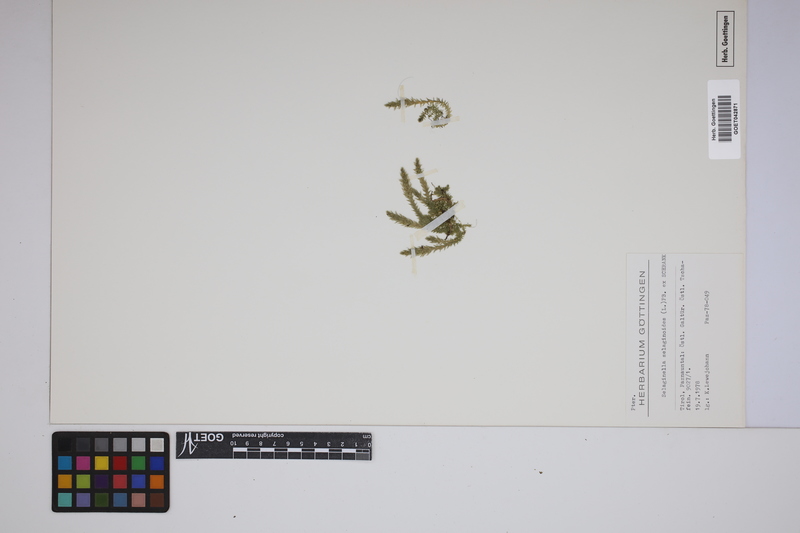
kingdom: Plantae
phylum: Tracheophyta
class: Lycopodiopsida
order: Selaginellales
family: Selaginellaceae
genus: Selaginella
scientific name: Selaginella selaginoides
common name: Prickly mountain-moss
